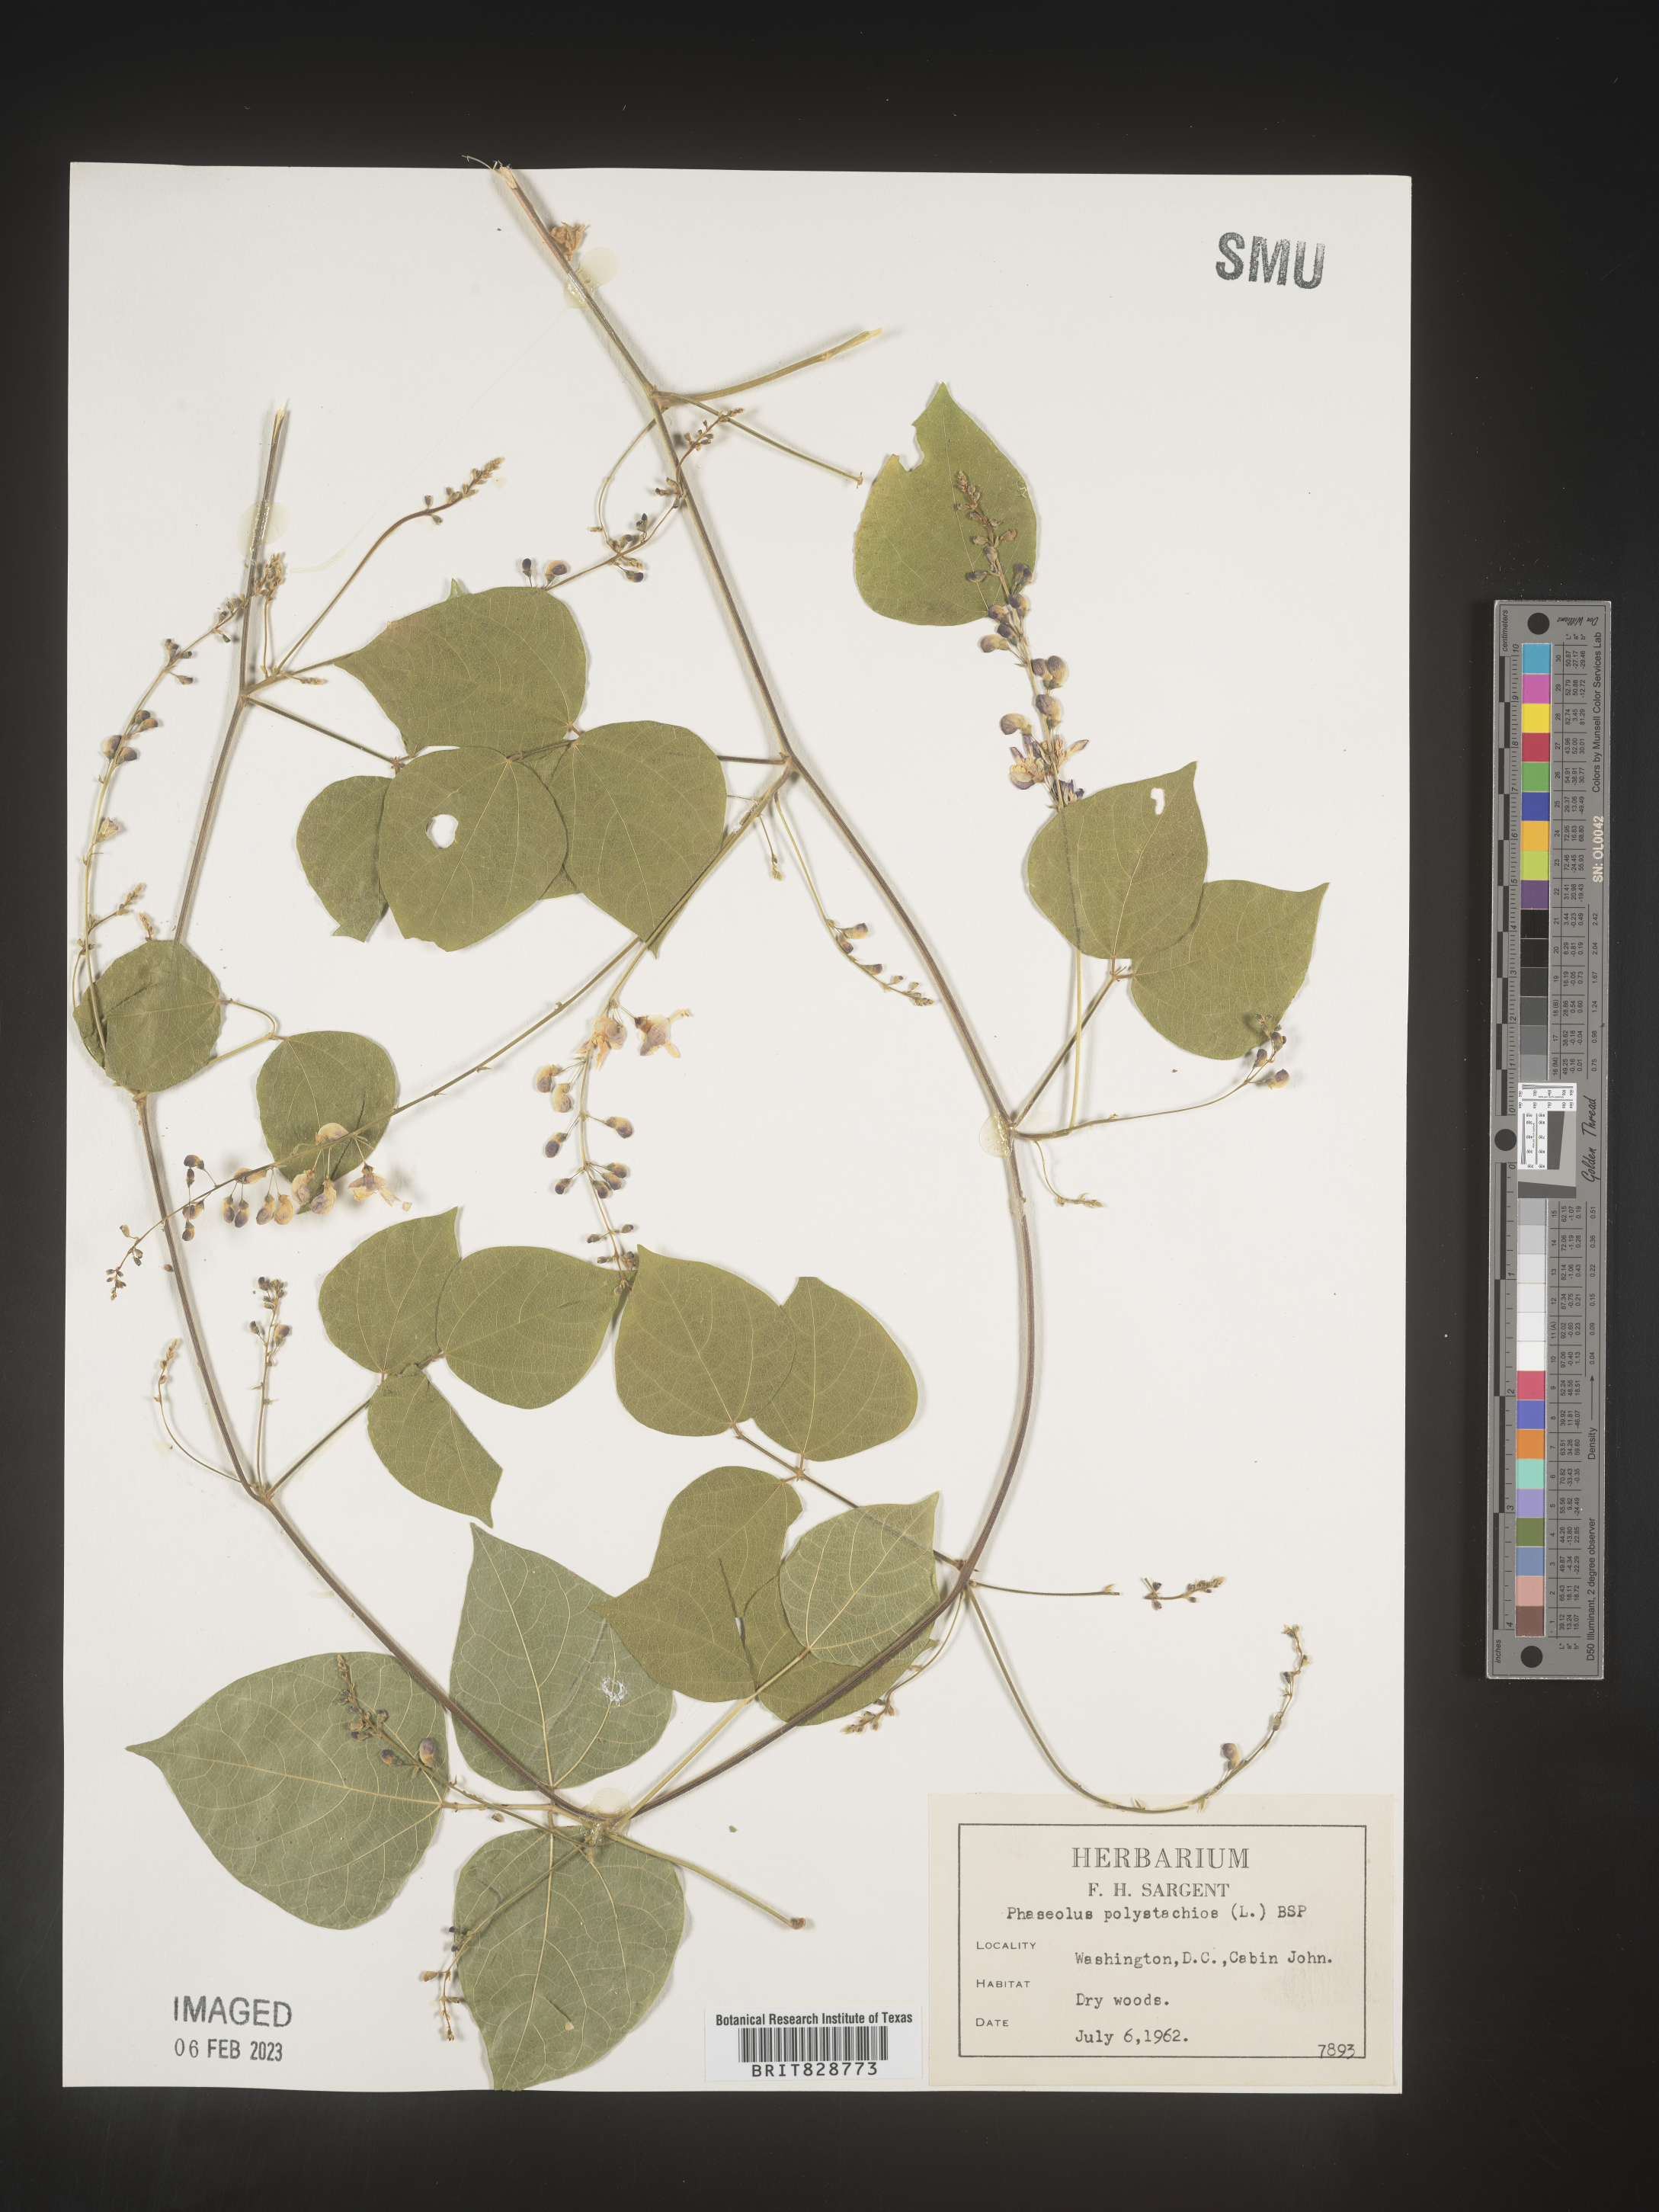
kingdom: Plantae
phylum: Tracheophyta
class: Magnoliopsida
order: Fabales
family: Fabaceae
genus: Phaseolus
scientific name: Phaseolus polystachios
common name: Thicket bean
